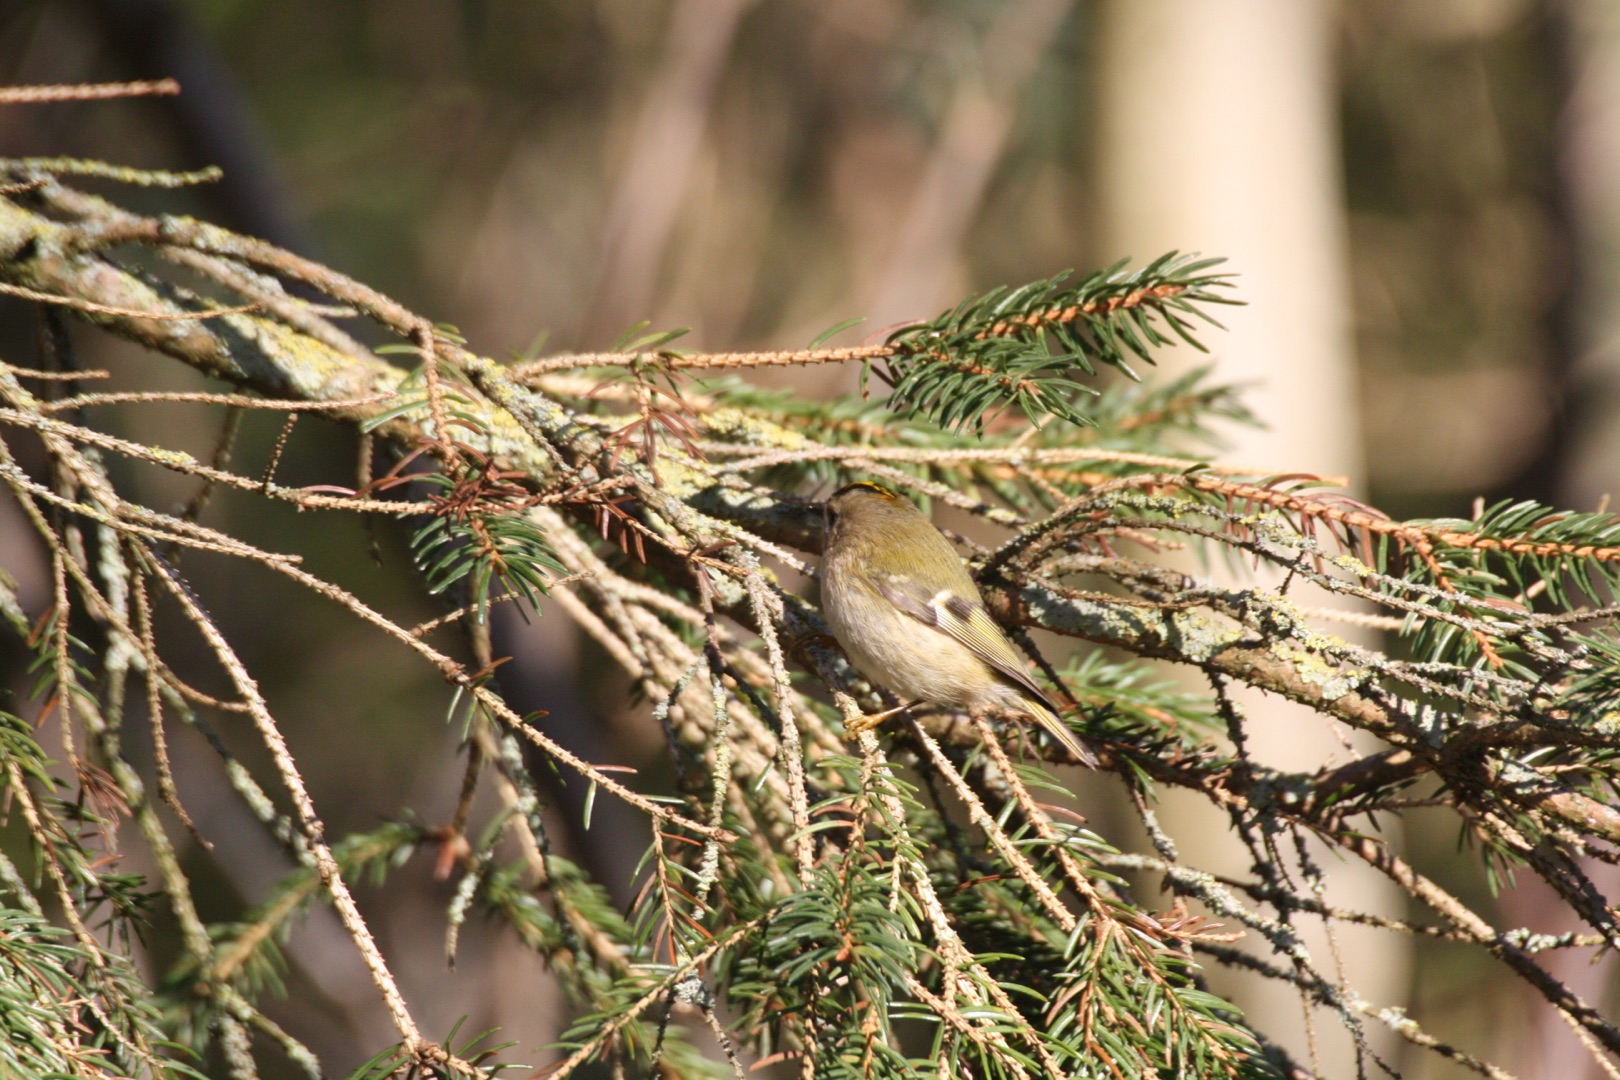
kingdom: Animalia
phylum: Chordata
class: Aves
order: Passeriformes
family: Regulidae
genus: Regulus
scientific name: Regulus regulus
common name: Fuglekonge
